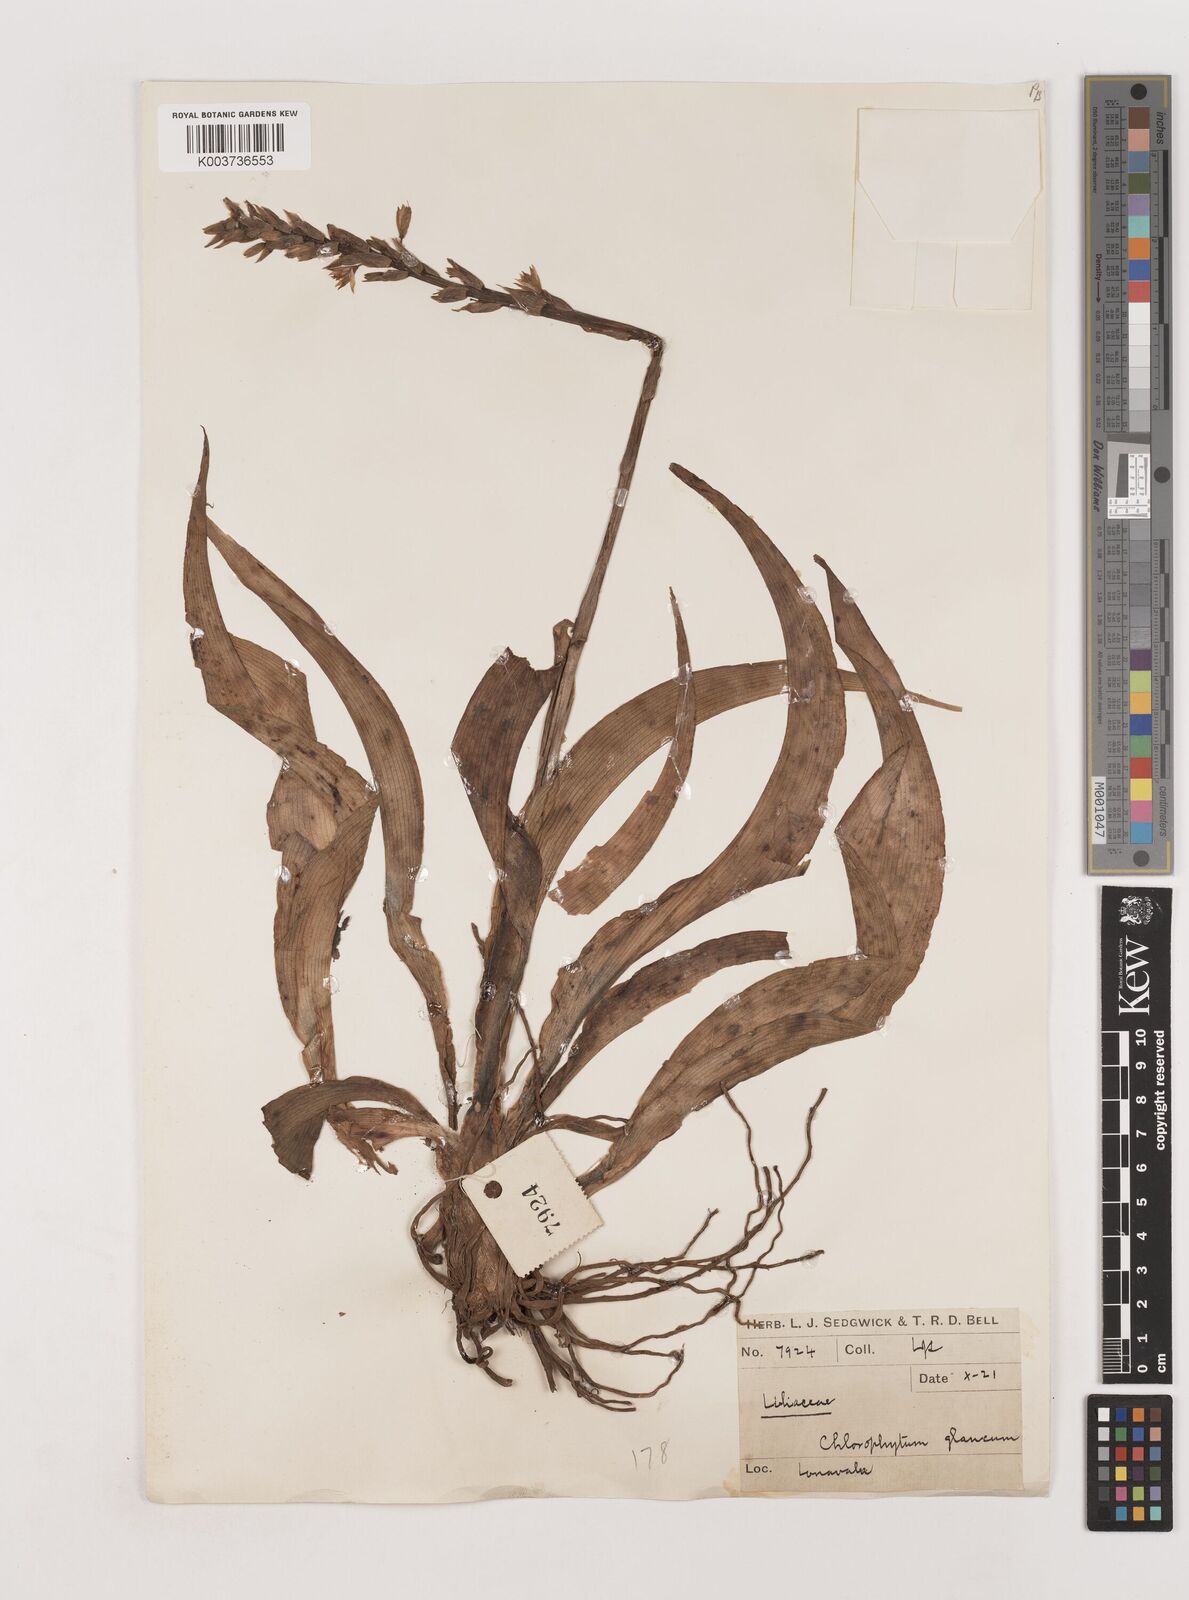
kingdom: Plantae
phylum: Tracheophyta
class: Liliopsida
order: Asparagales
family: Asparagaceae
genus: Chlorophytum
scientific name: Chlorophytum glaucum
